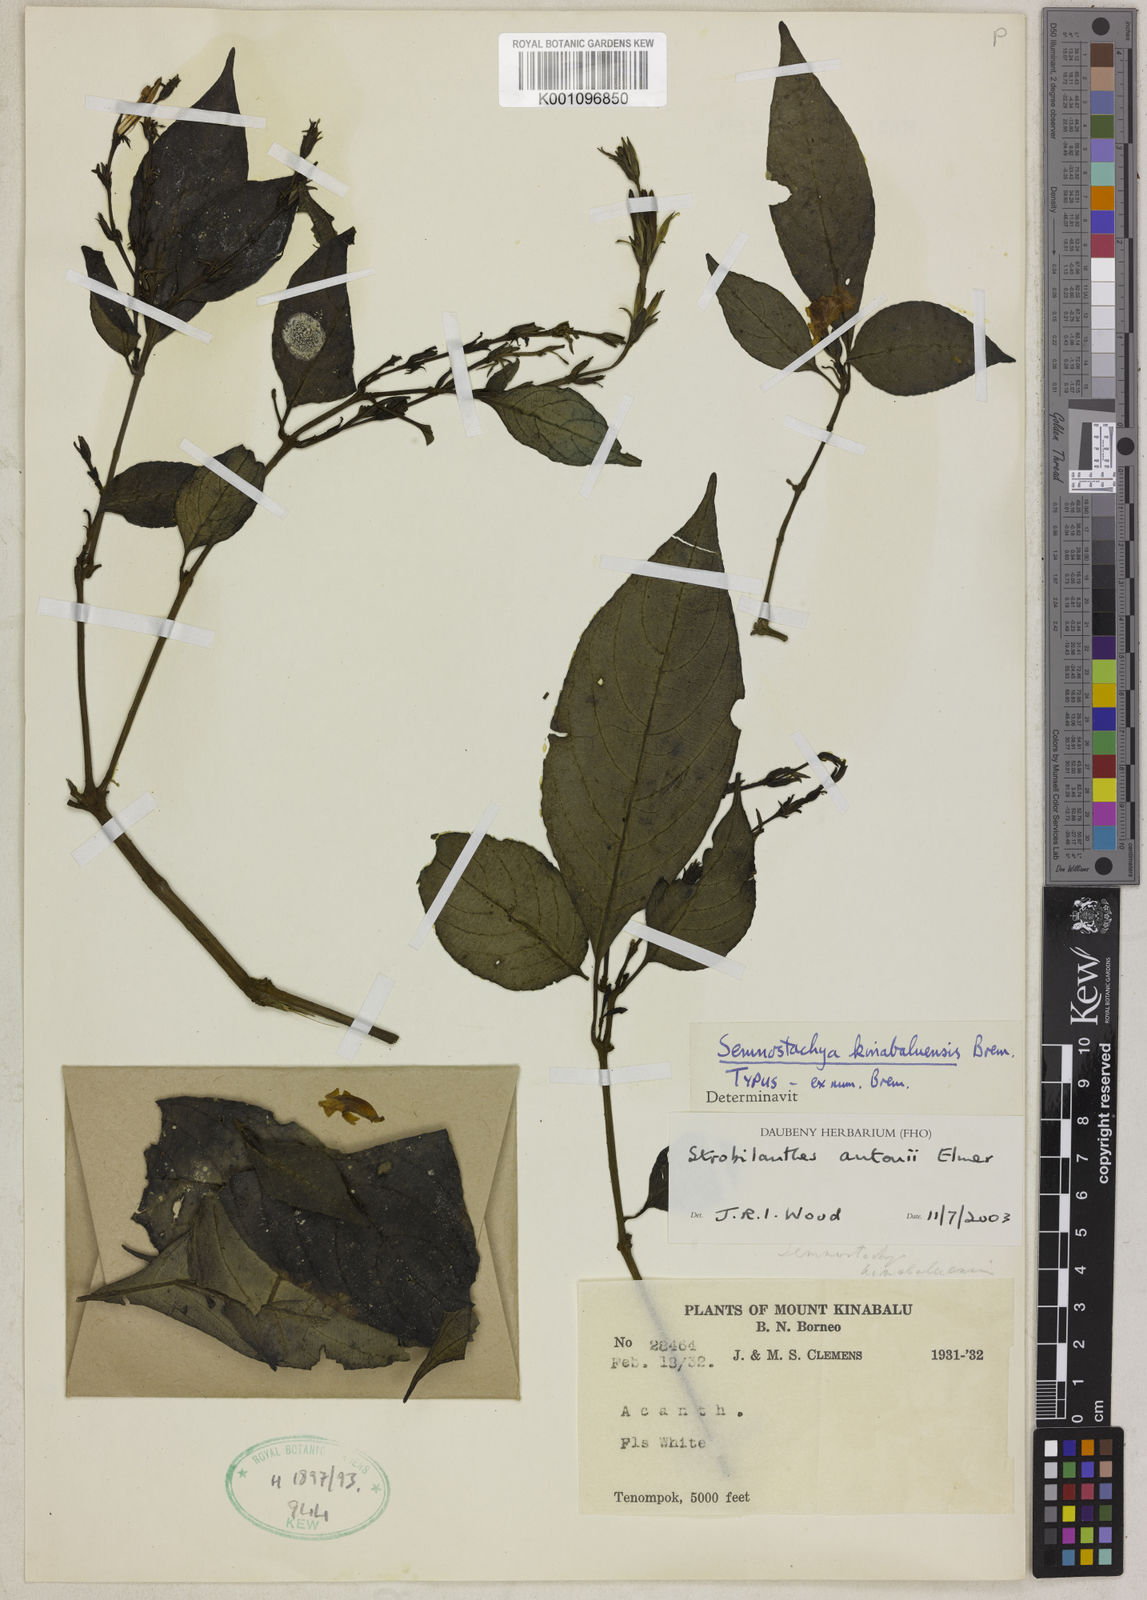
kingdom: Plantae
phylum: Tracheophyta
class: Magnoliopsida
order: Lamiales
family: Acanthaceae
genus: Strobilanthes
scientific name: Strobilanthes antonii
